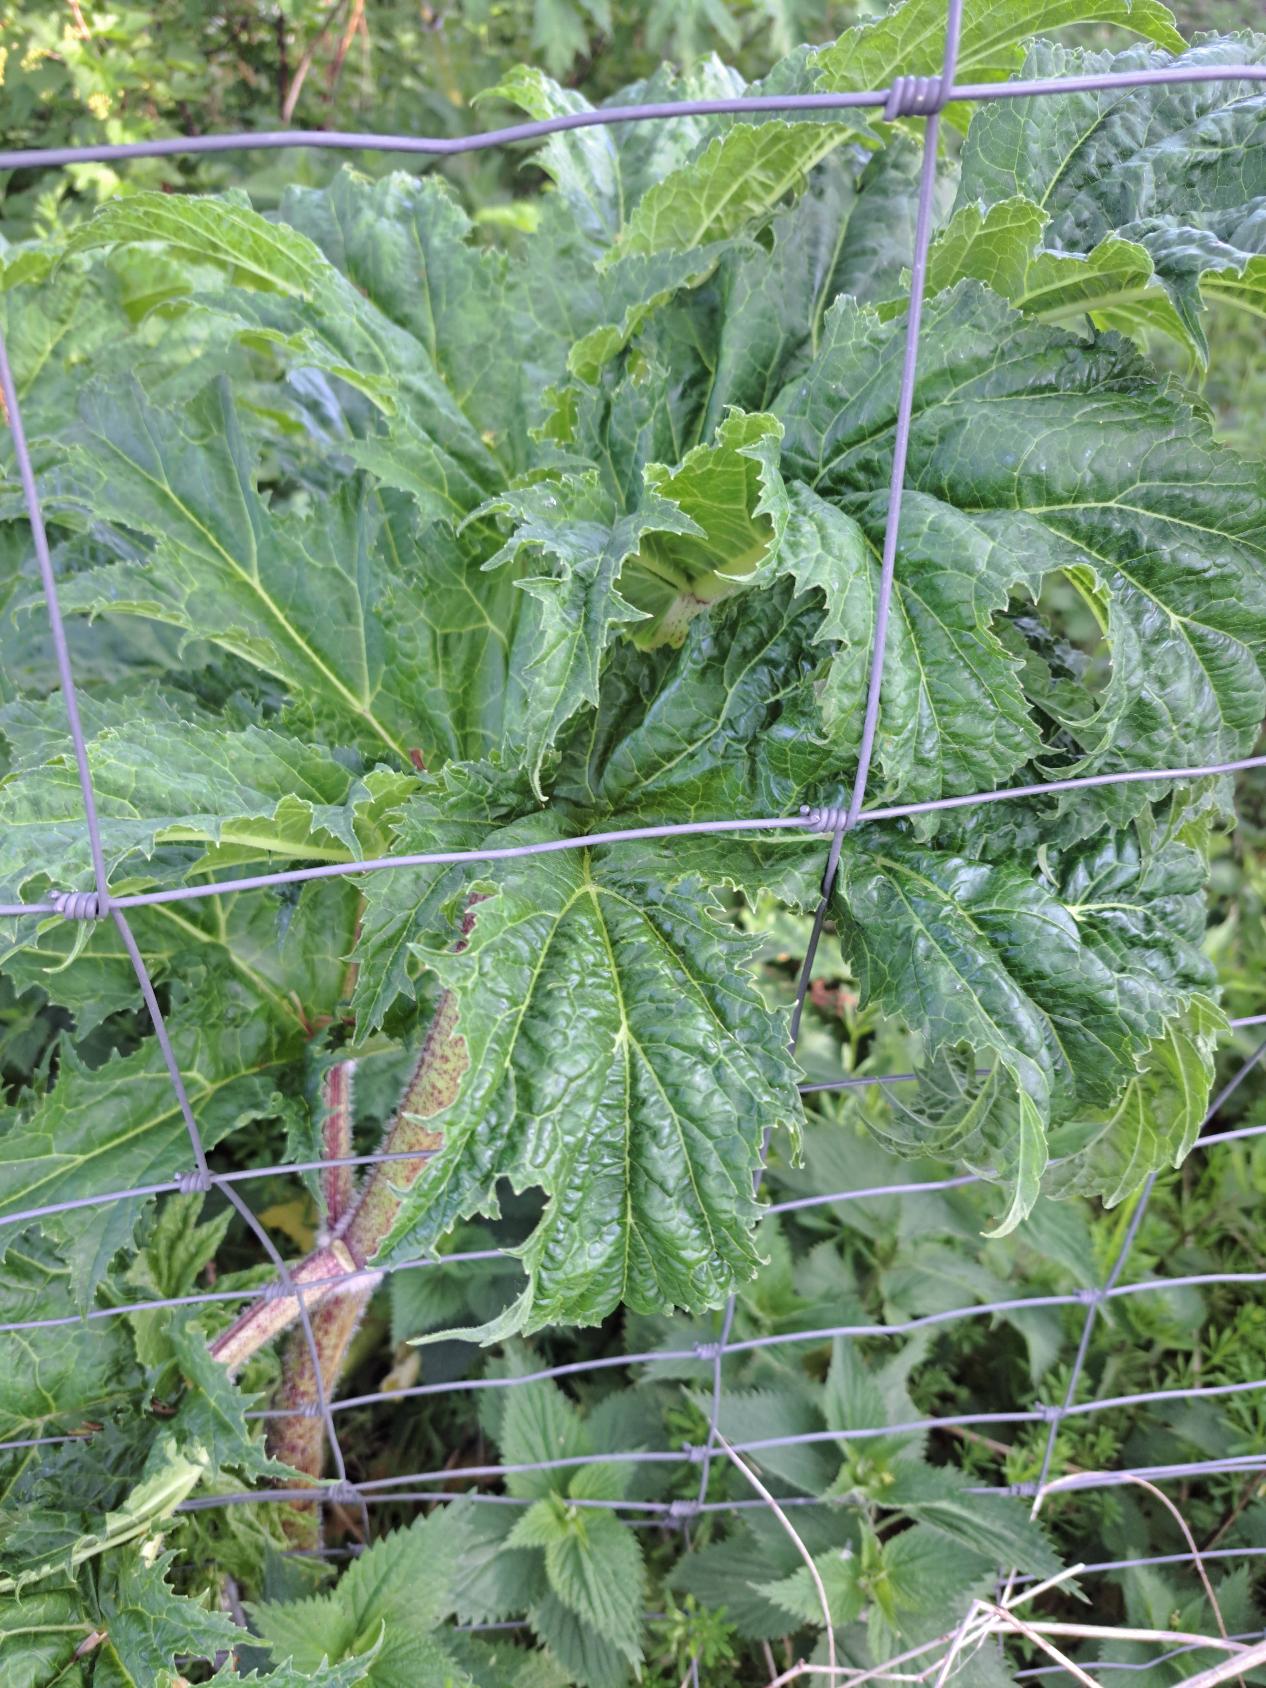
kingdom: Plantae
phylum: Tracheophyta
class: Magnoliopsida
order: Apiales
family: Apiaceae
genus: Heracleum
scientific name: Heracleum mantegazzianum
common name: Kæmpe-bjørneklo
